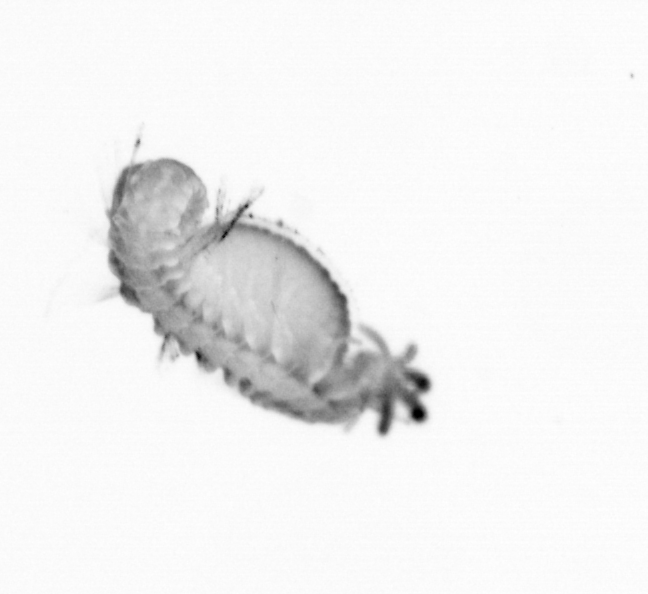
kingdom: Animalia
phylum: Annelida
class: Polychaeta
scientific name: Polychaeta
